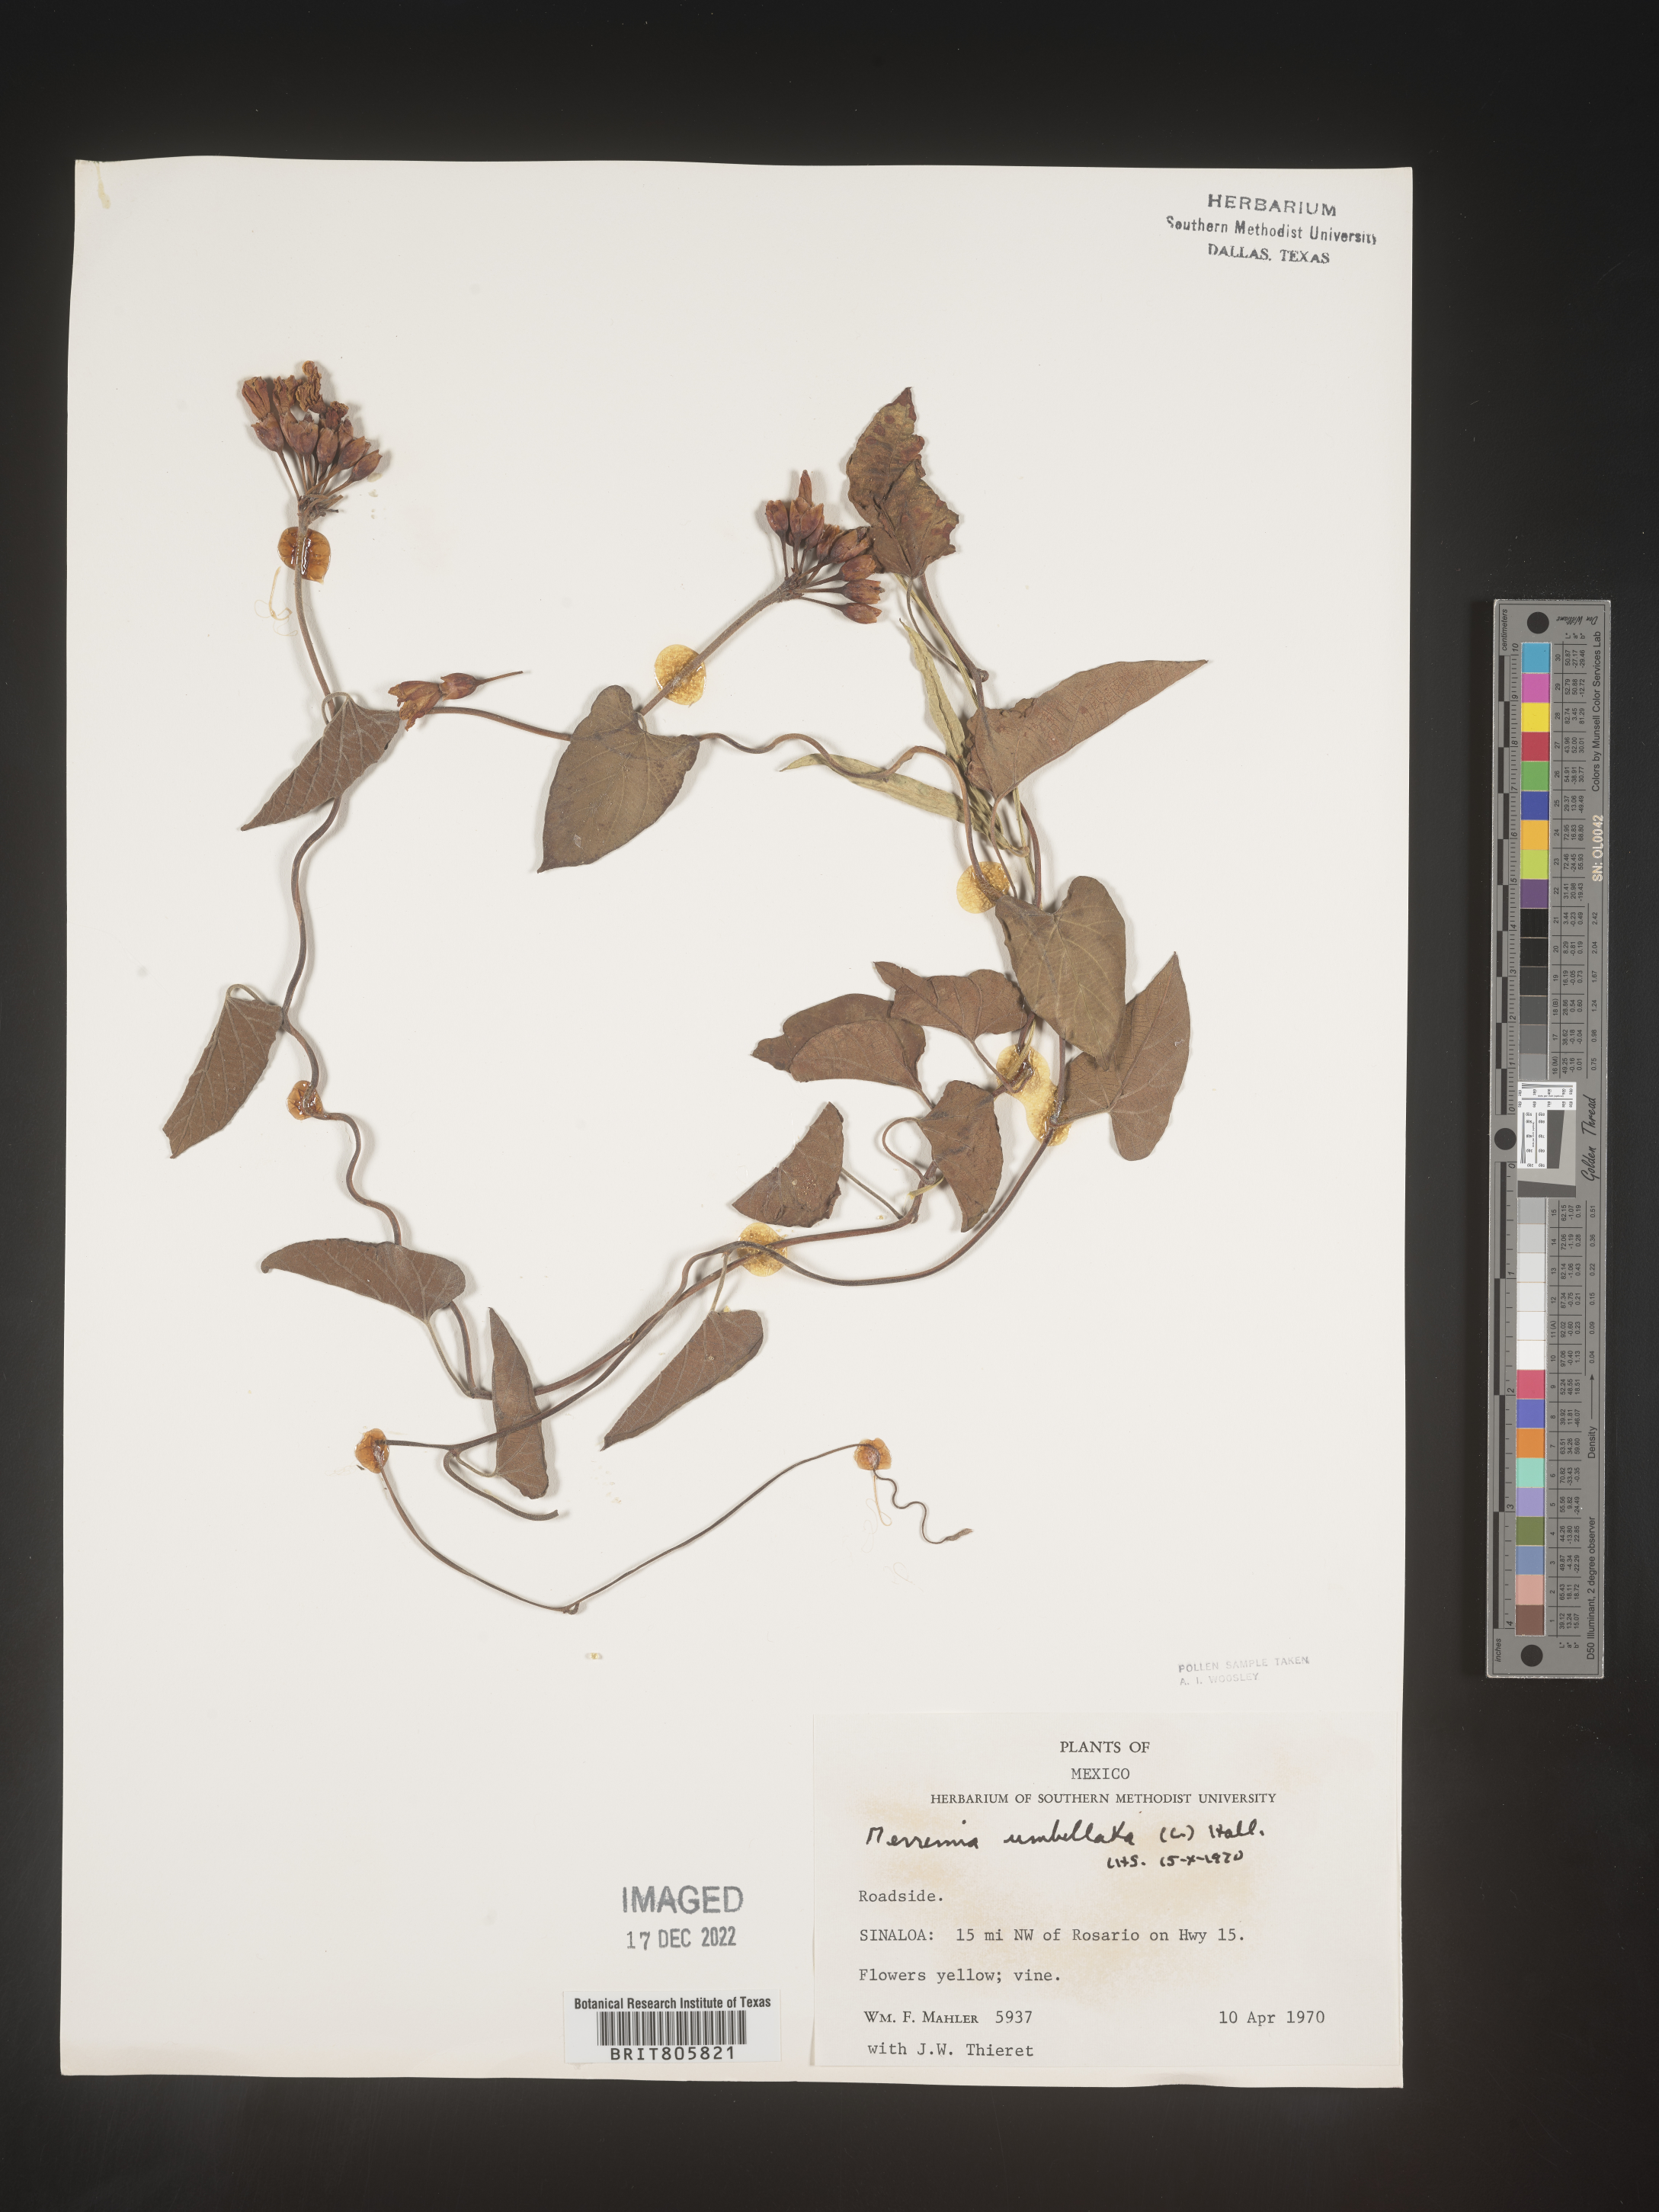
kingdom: Plantae
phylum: Tracheophyta
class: Magnoliopsida
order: Solanales
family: Convolvulaceae
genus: Merremia
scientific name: Merremia
